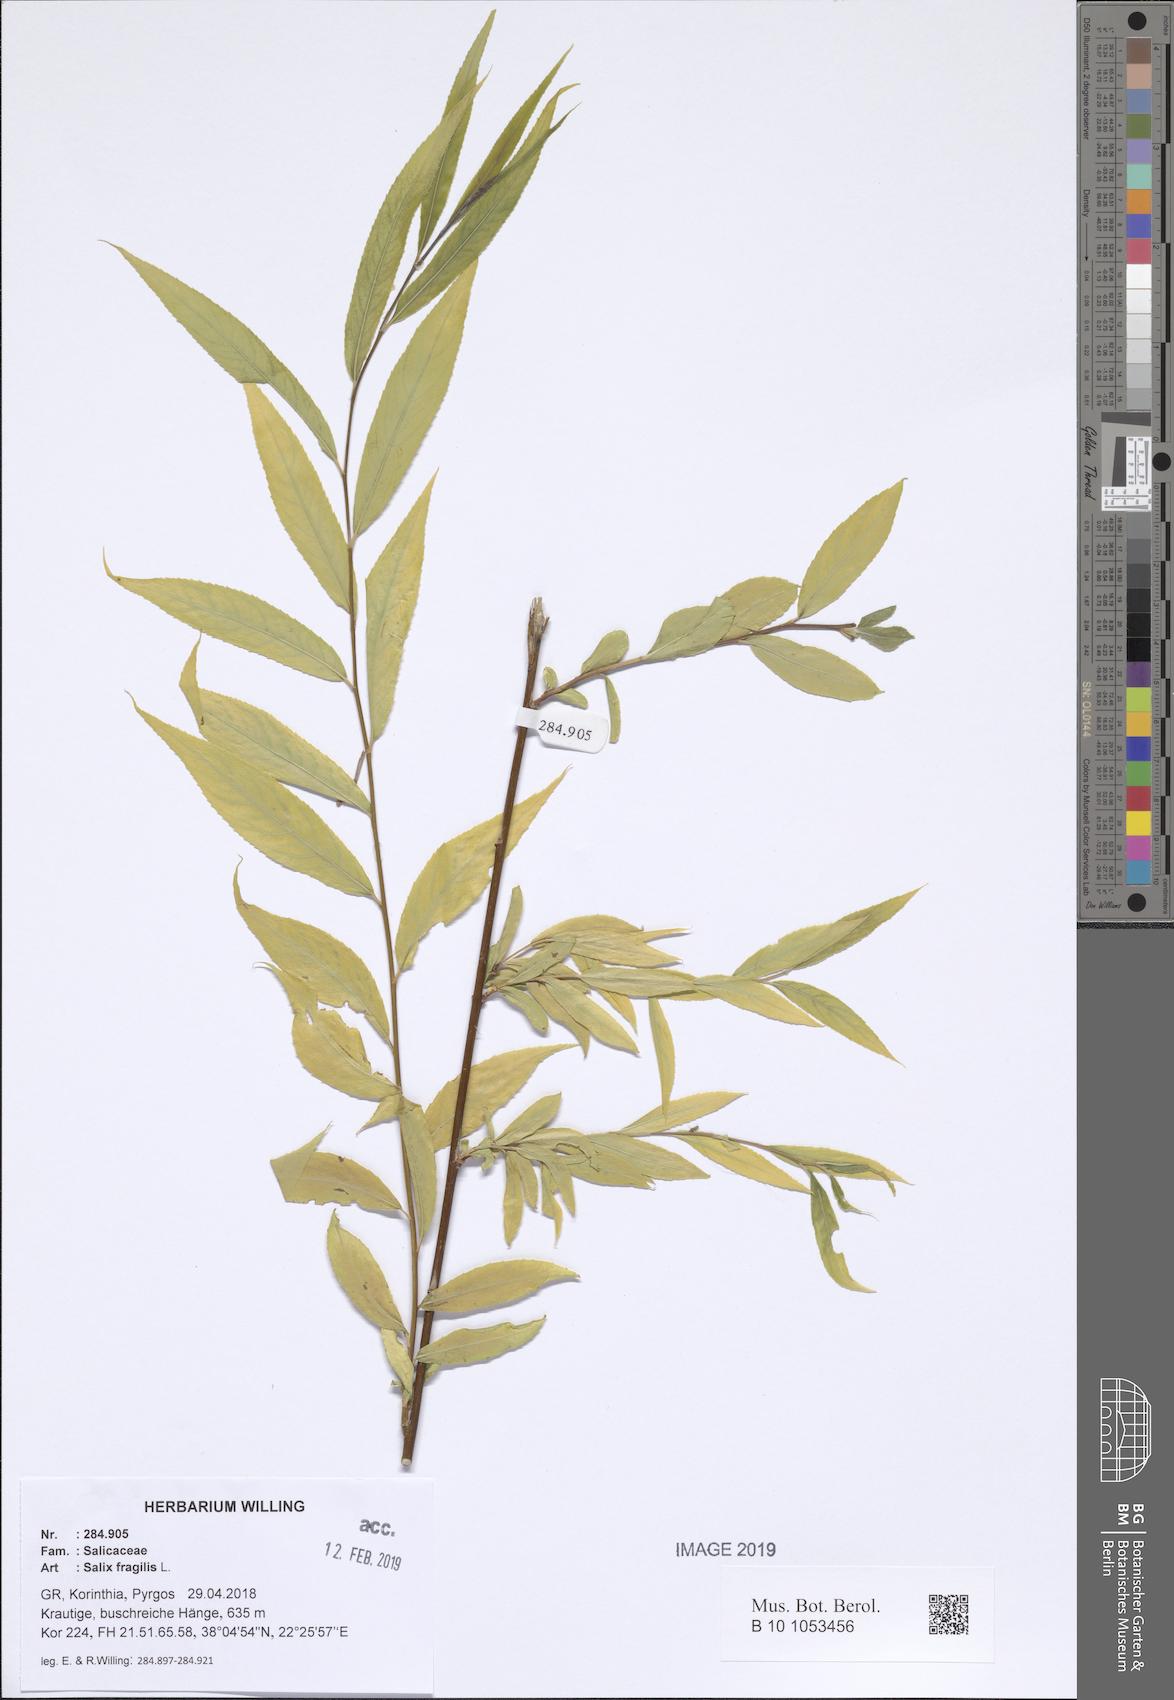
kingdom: Plantae
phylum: Tracheophyta
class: Magnoliopsida
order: Malpighiales
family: Salicaceae
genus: Salix
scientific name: Salix fragilis
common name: Crack willow
